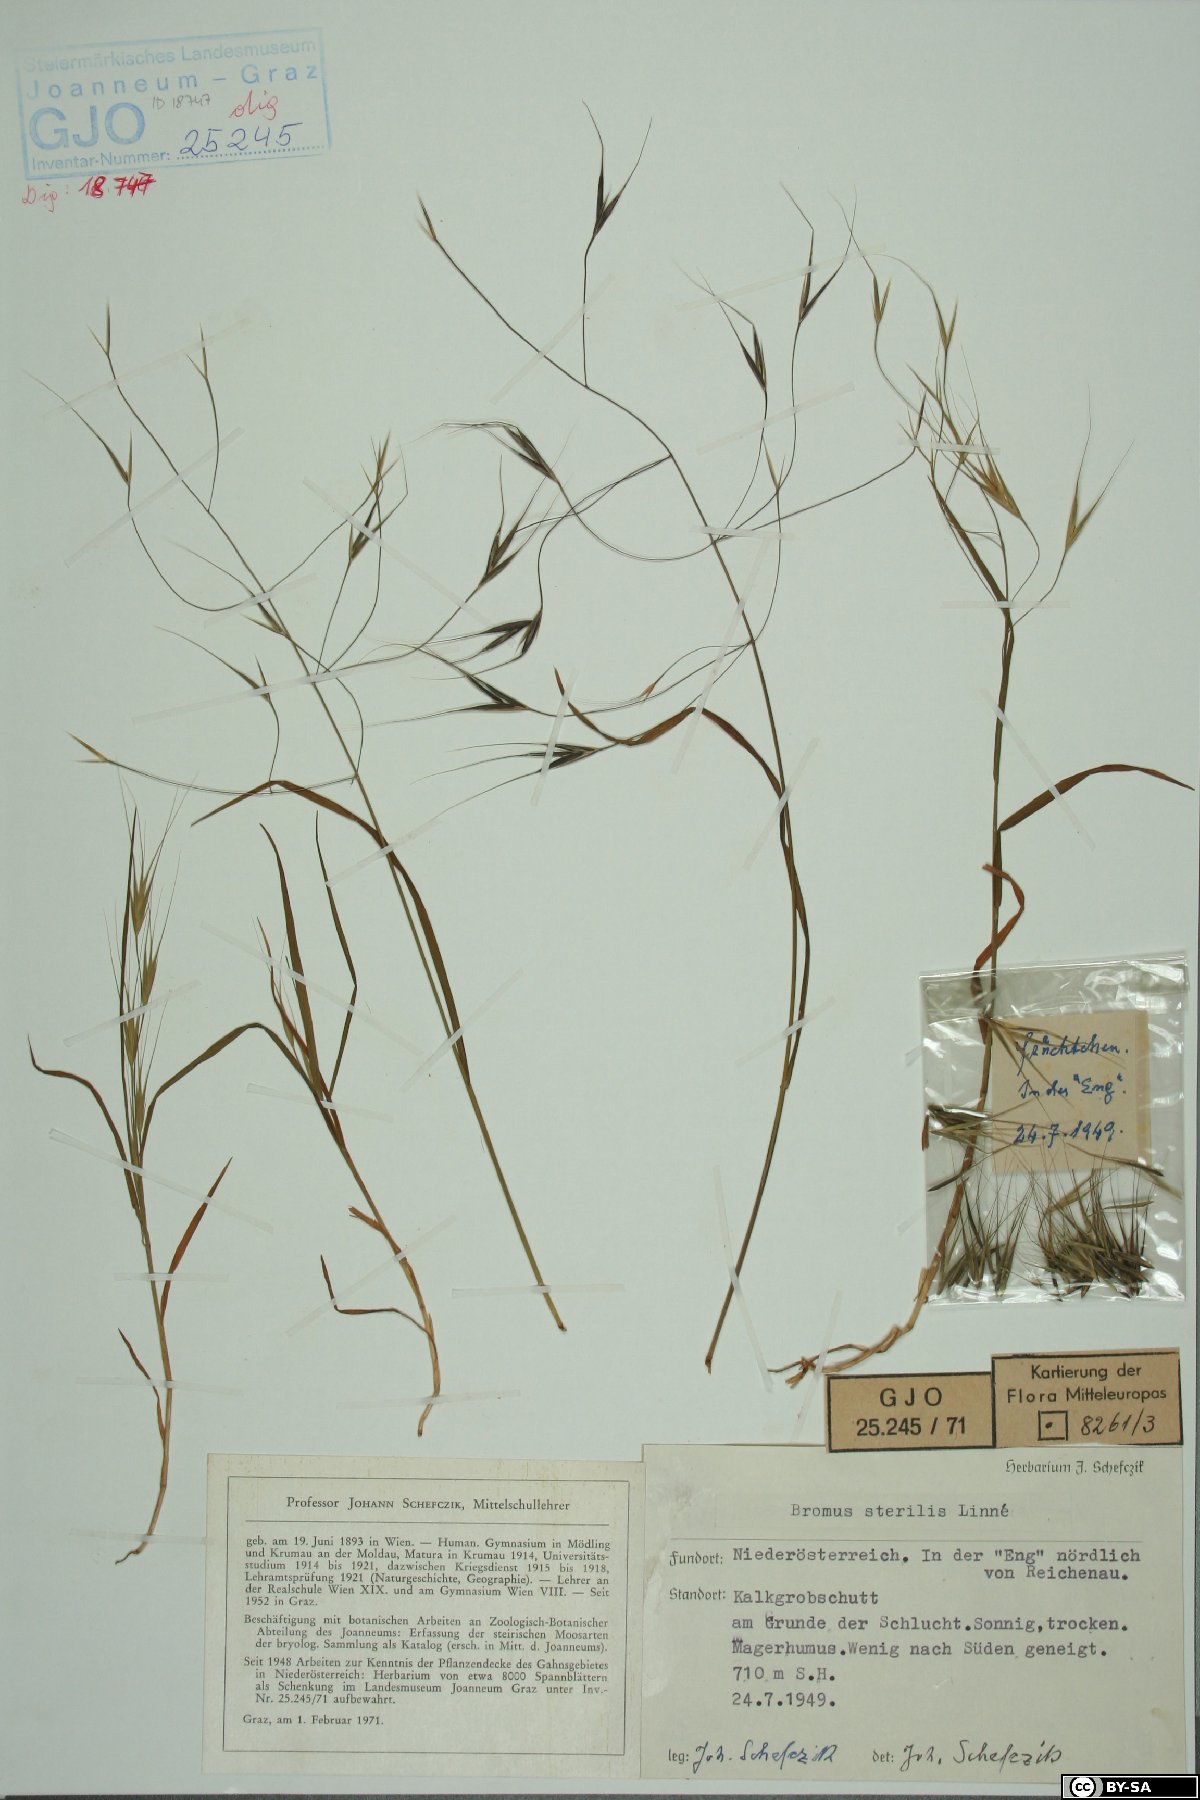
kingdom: Plantae
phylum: Tracheophyta
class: Liliopsida
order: Poales
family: Poaceae
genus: Bromus
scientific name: Bromus sterilis
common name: Poverty brome
